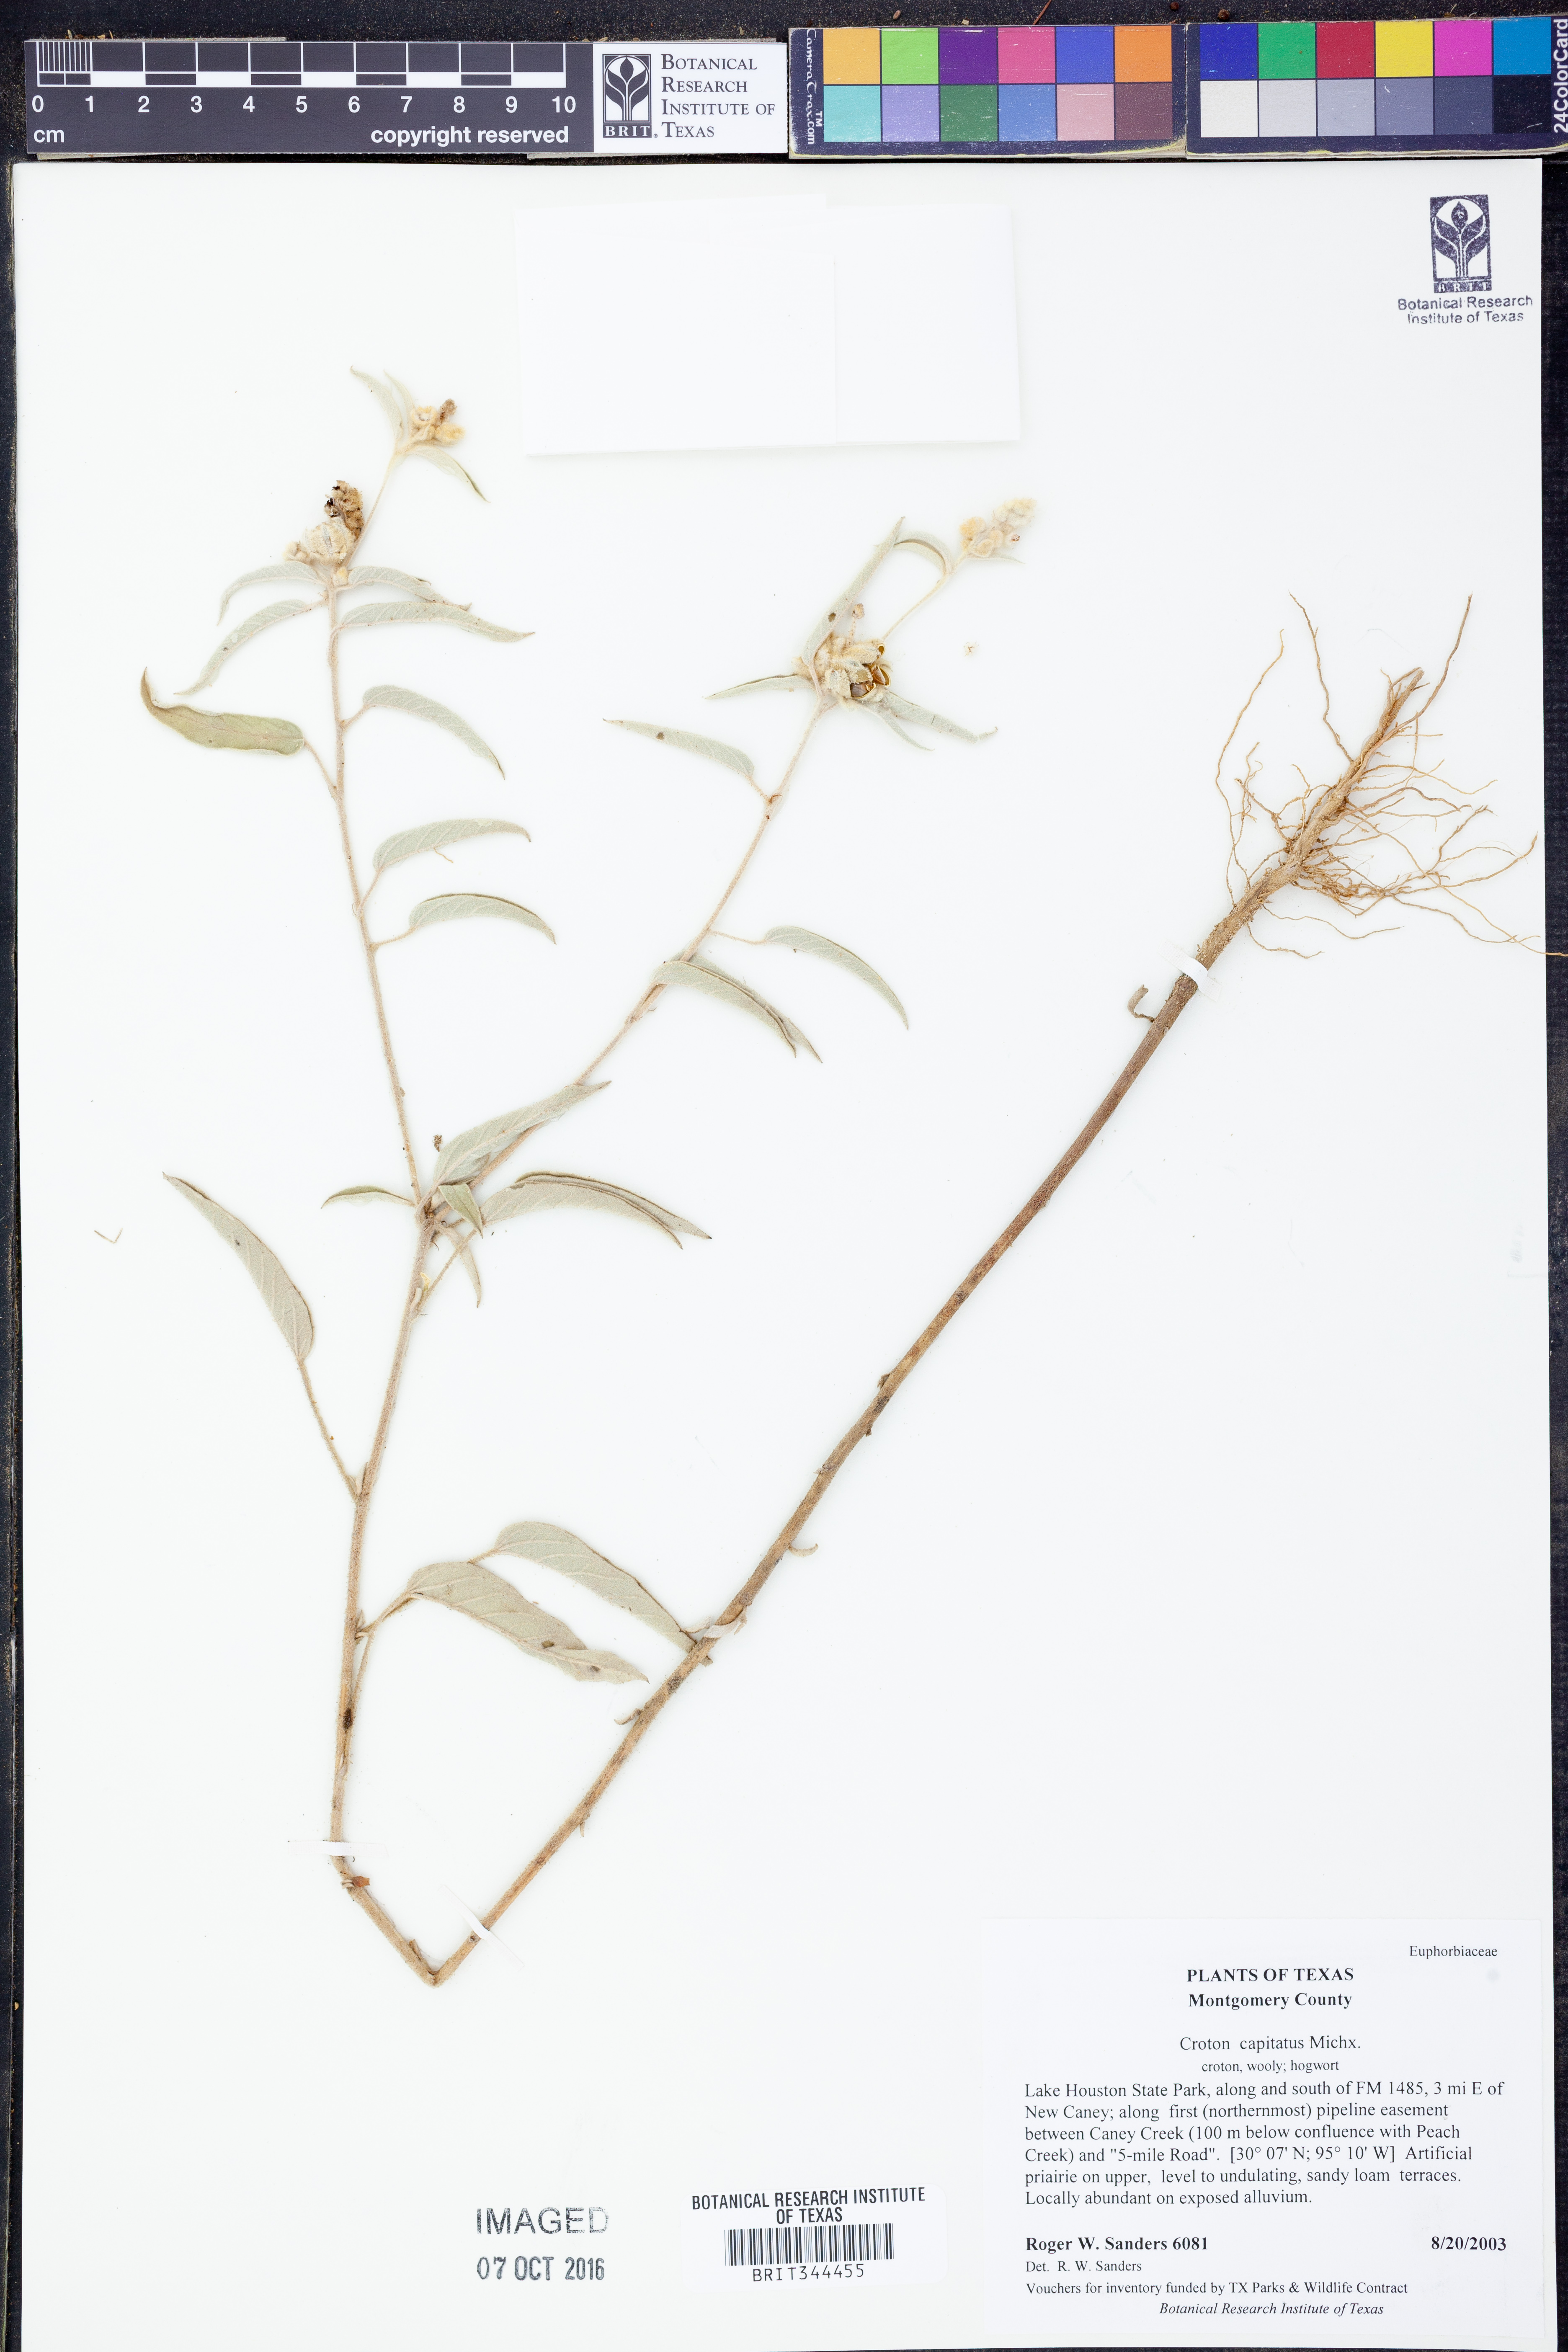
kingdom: Plantae
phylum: Tracheophyta
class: Magnoliopsida
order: Malpighiales
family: Euphorbiaceae
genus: Croton
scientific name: Croton capitatus
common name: Woolly croton
